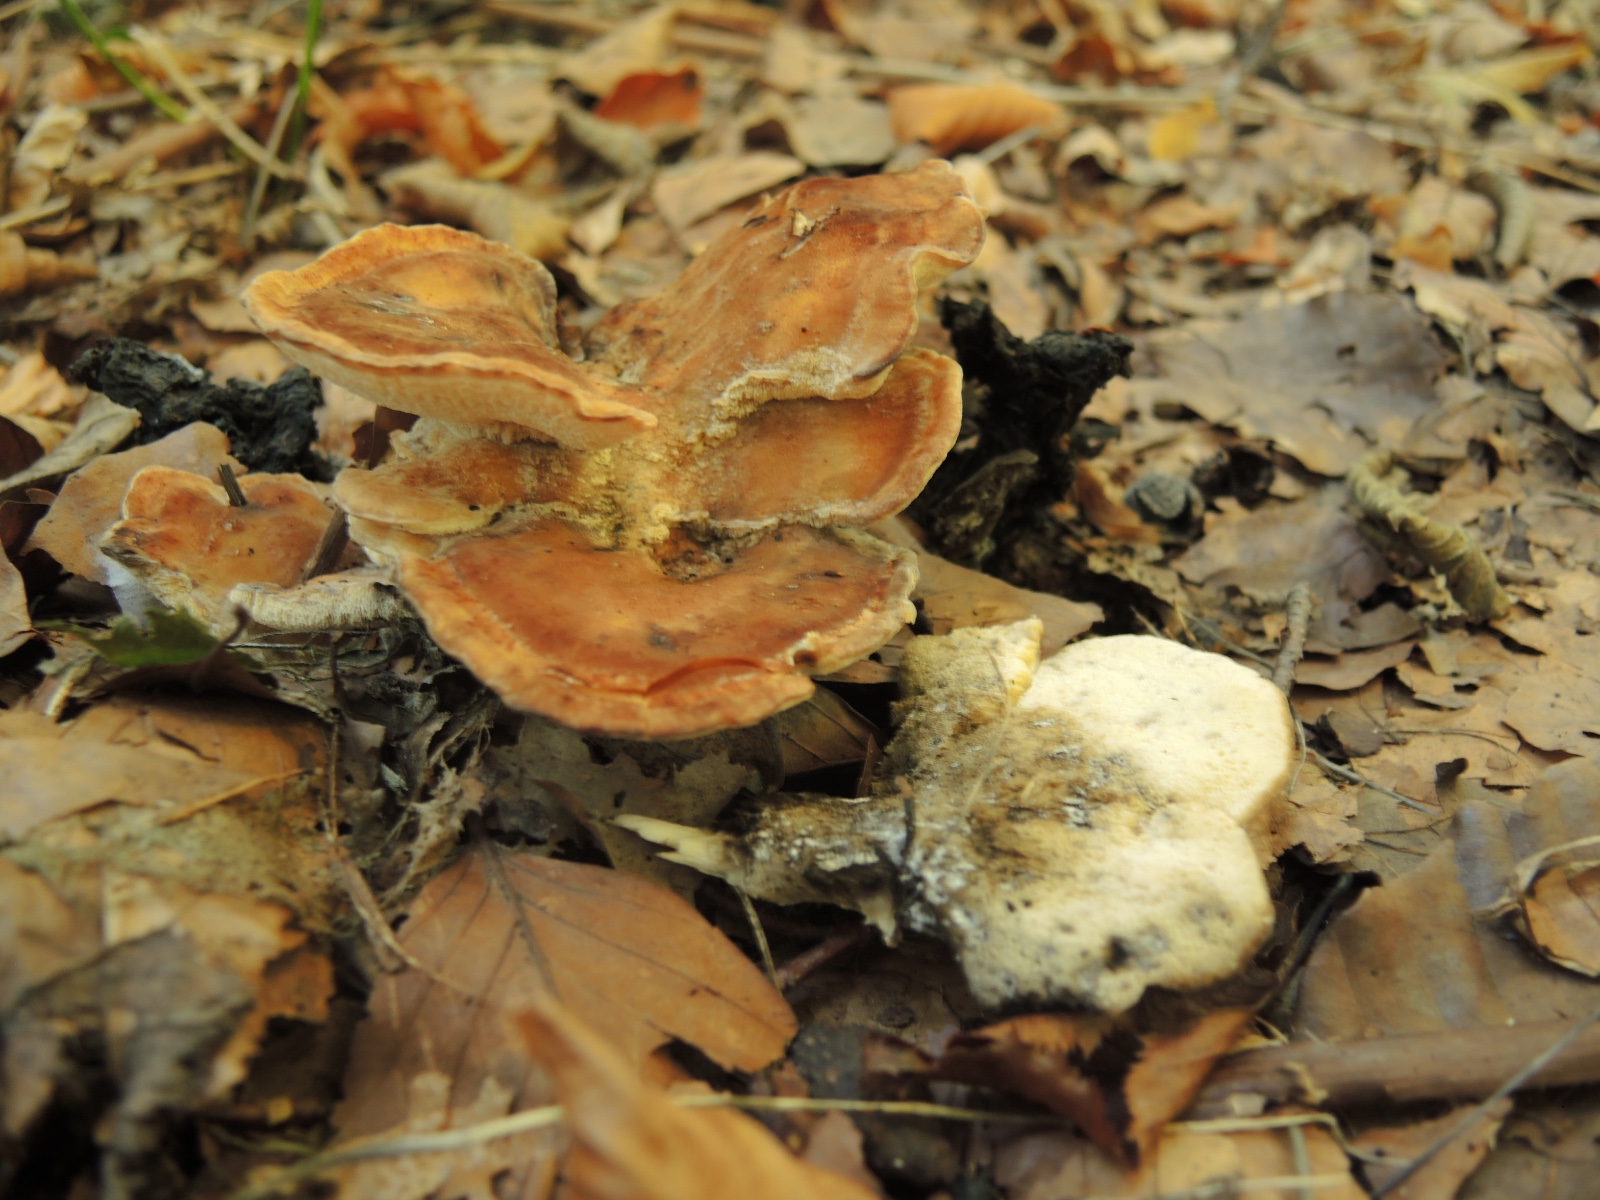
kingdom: Fungi
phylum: Basidiomycota
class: Agaricomycetes
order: Polyporales
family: Meripilaceae
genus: Meripilus
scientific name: Meripilus giganteus
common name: kæmpeporesvamp
